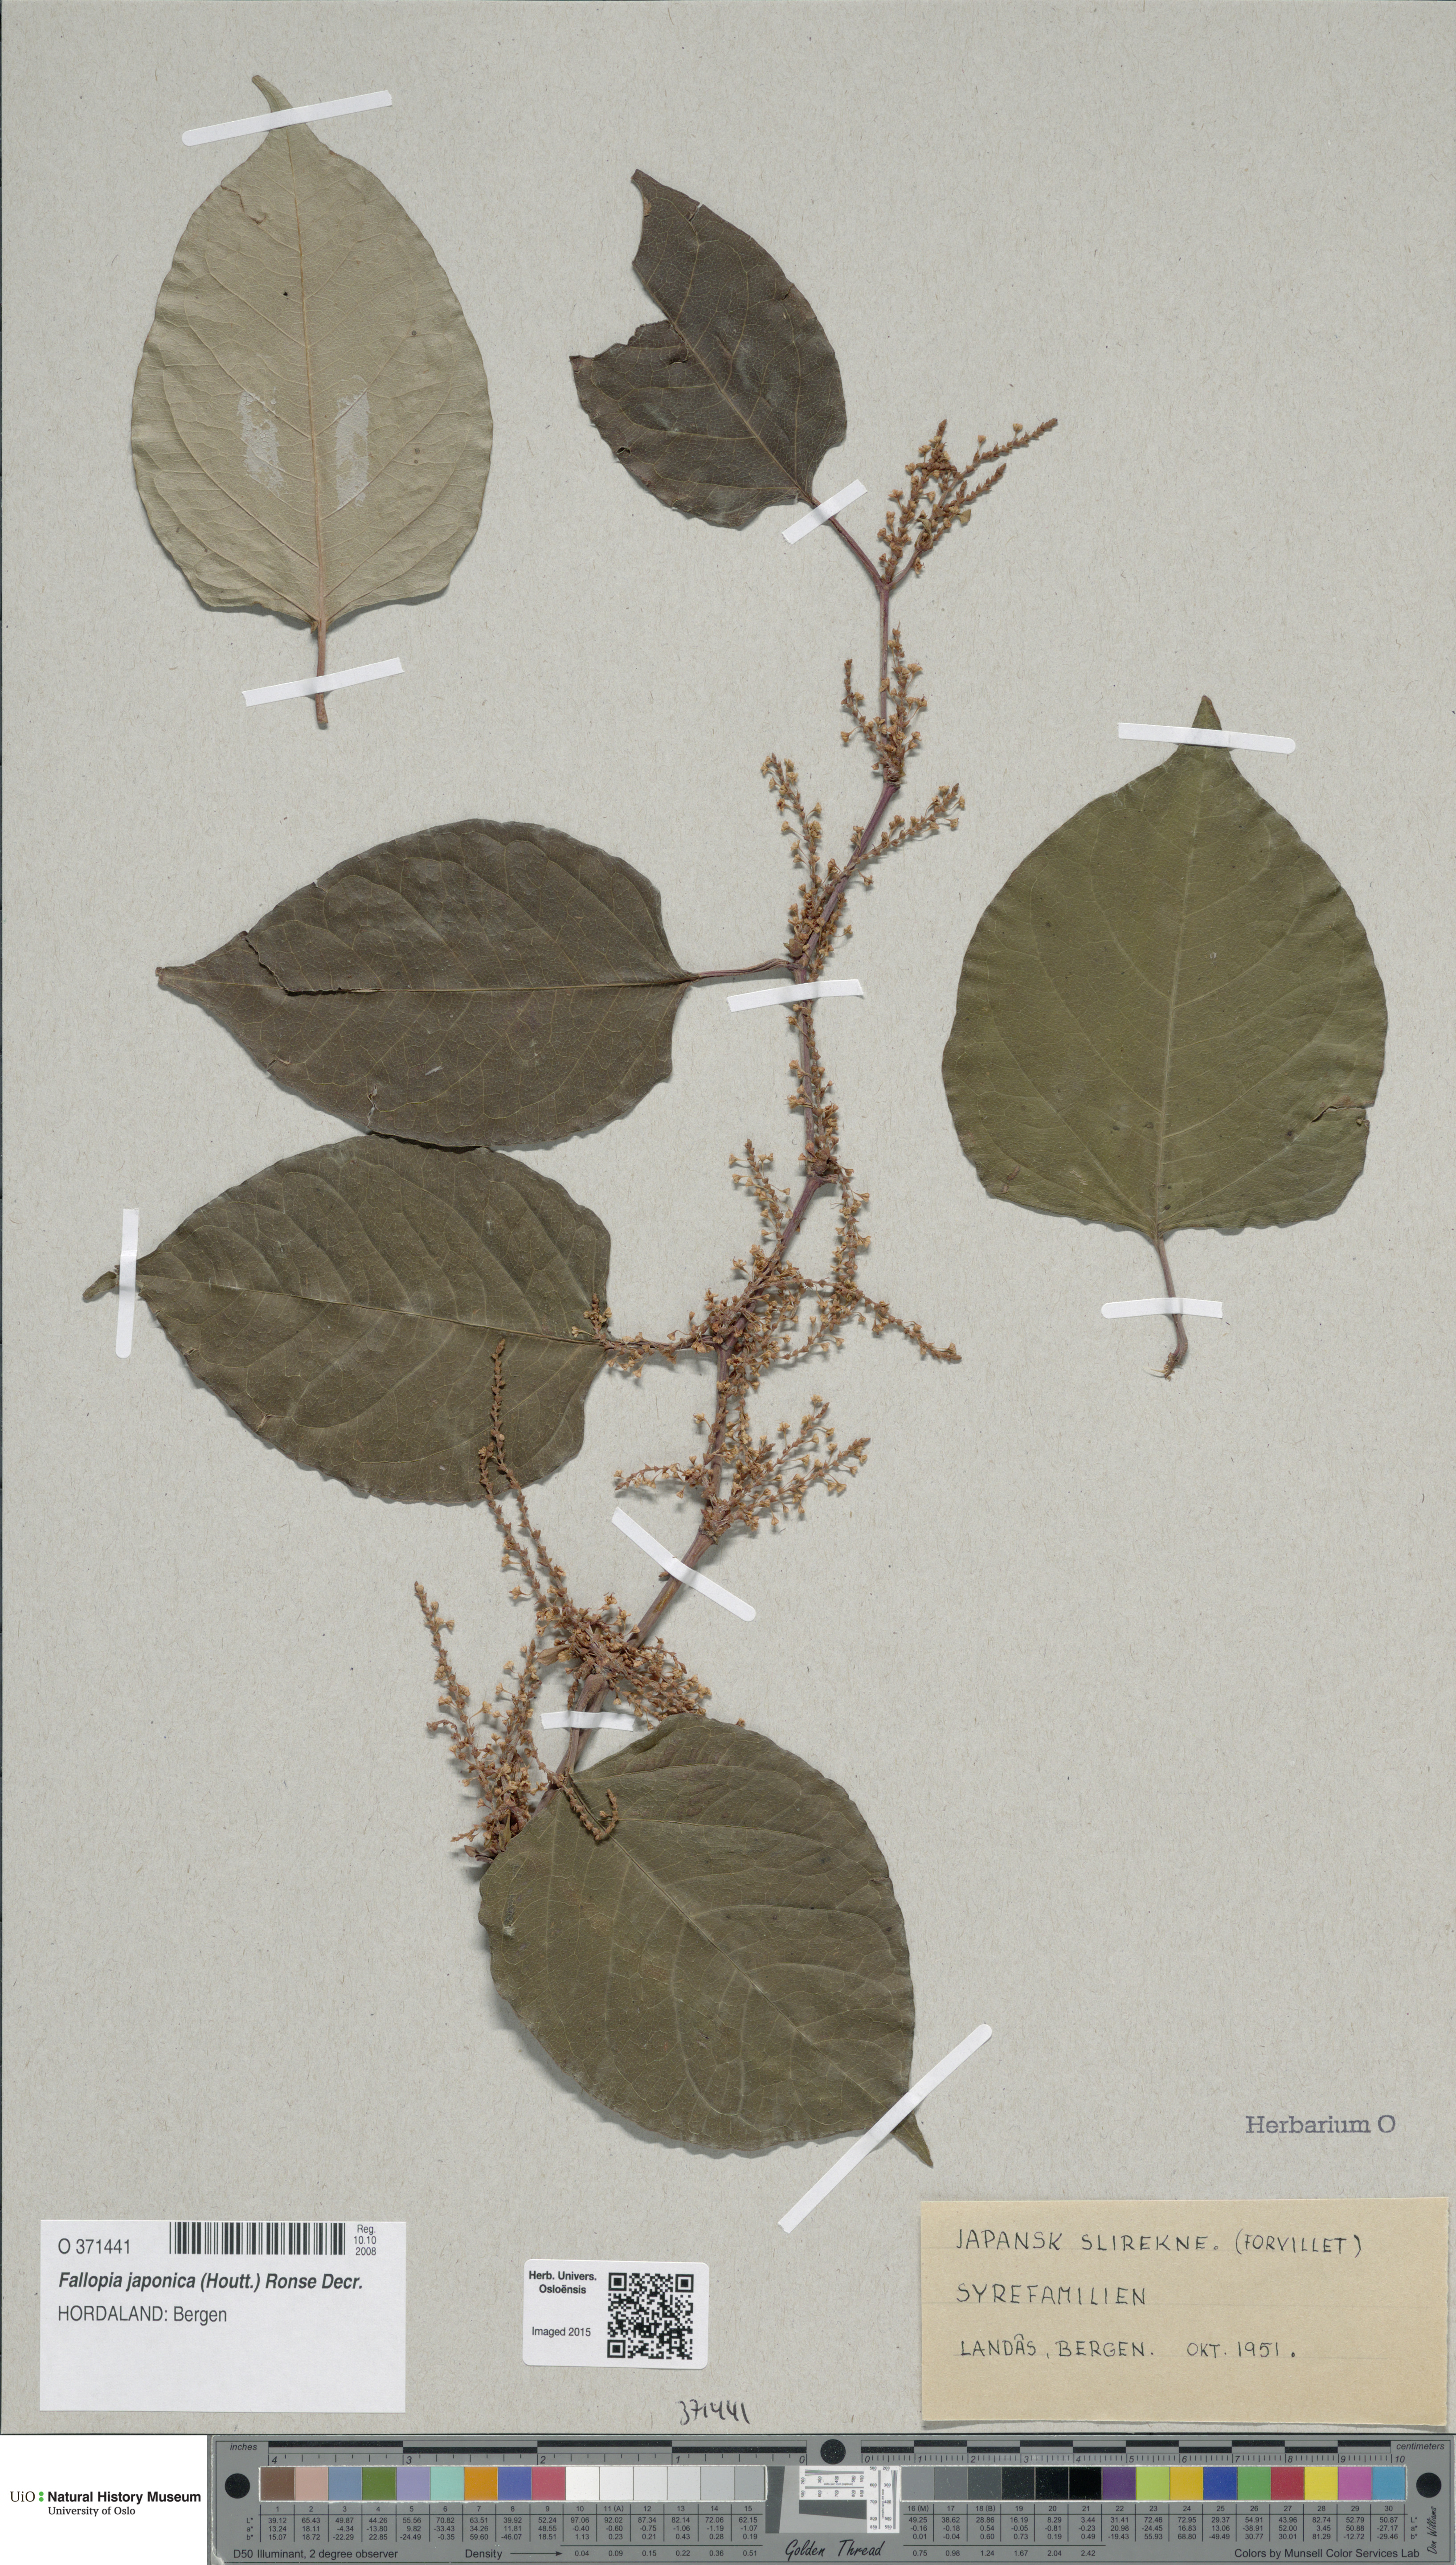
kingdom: Plantae
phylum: Tracheophyta
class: Magnoliopsida
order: Caryophyllales
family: Polygonaceae
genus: Reynoutria
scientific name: Reynoutria japonica
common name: Japanese knotweed
